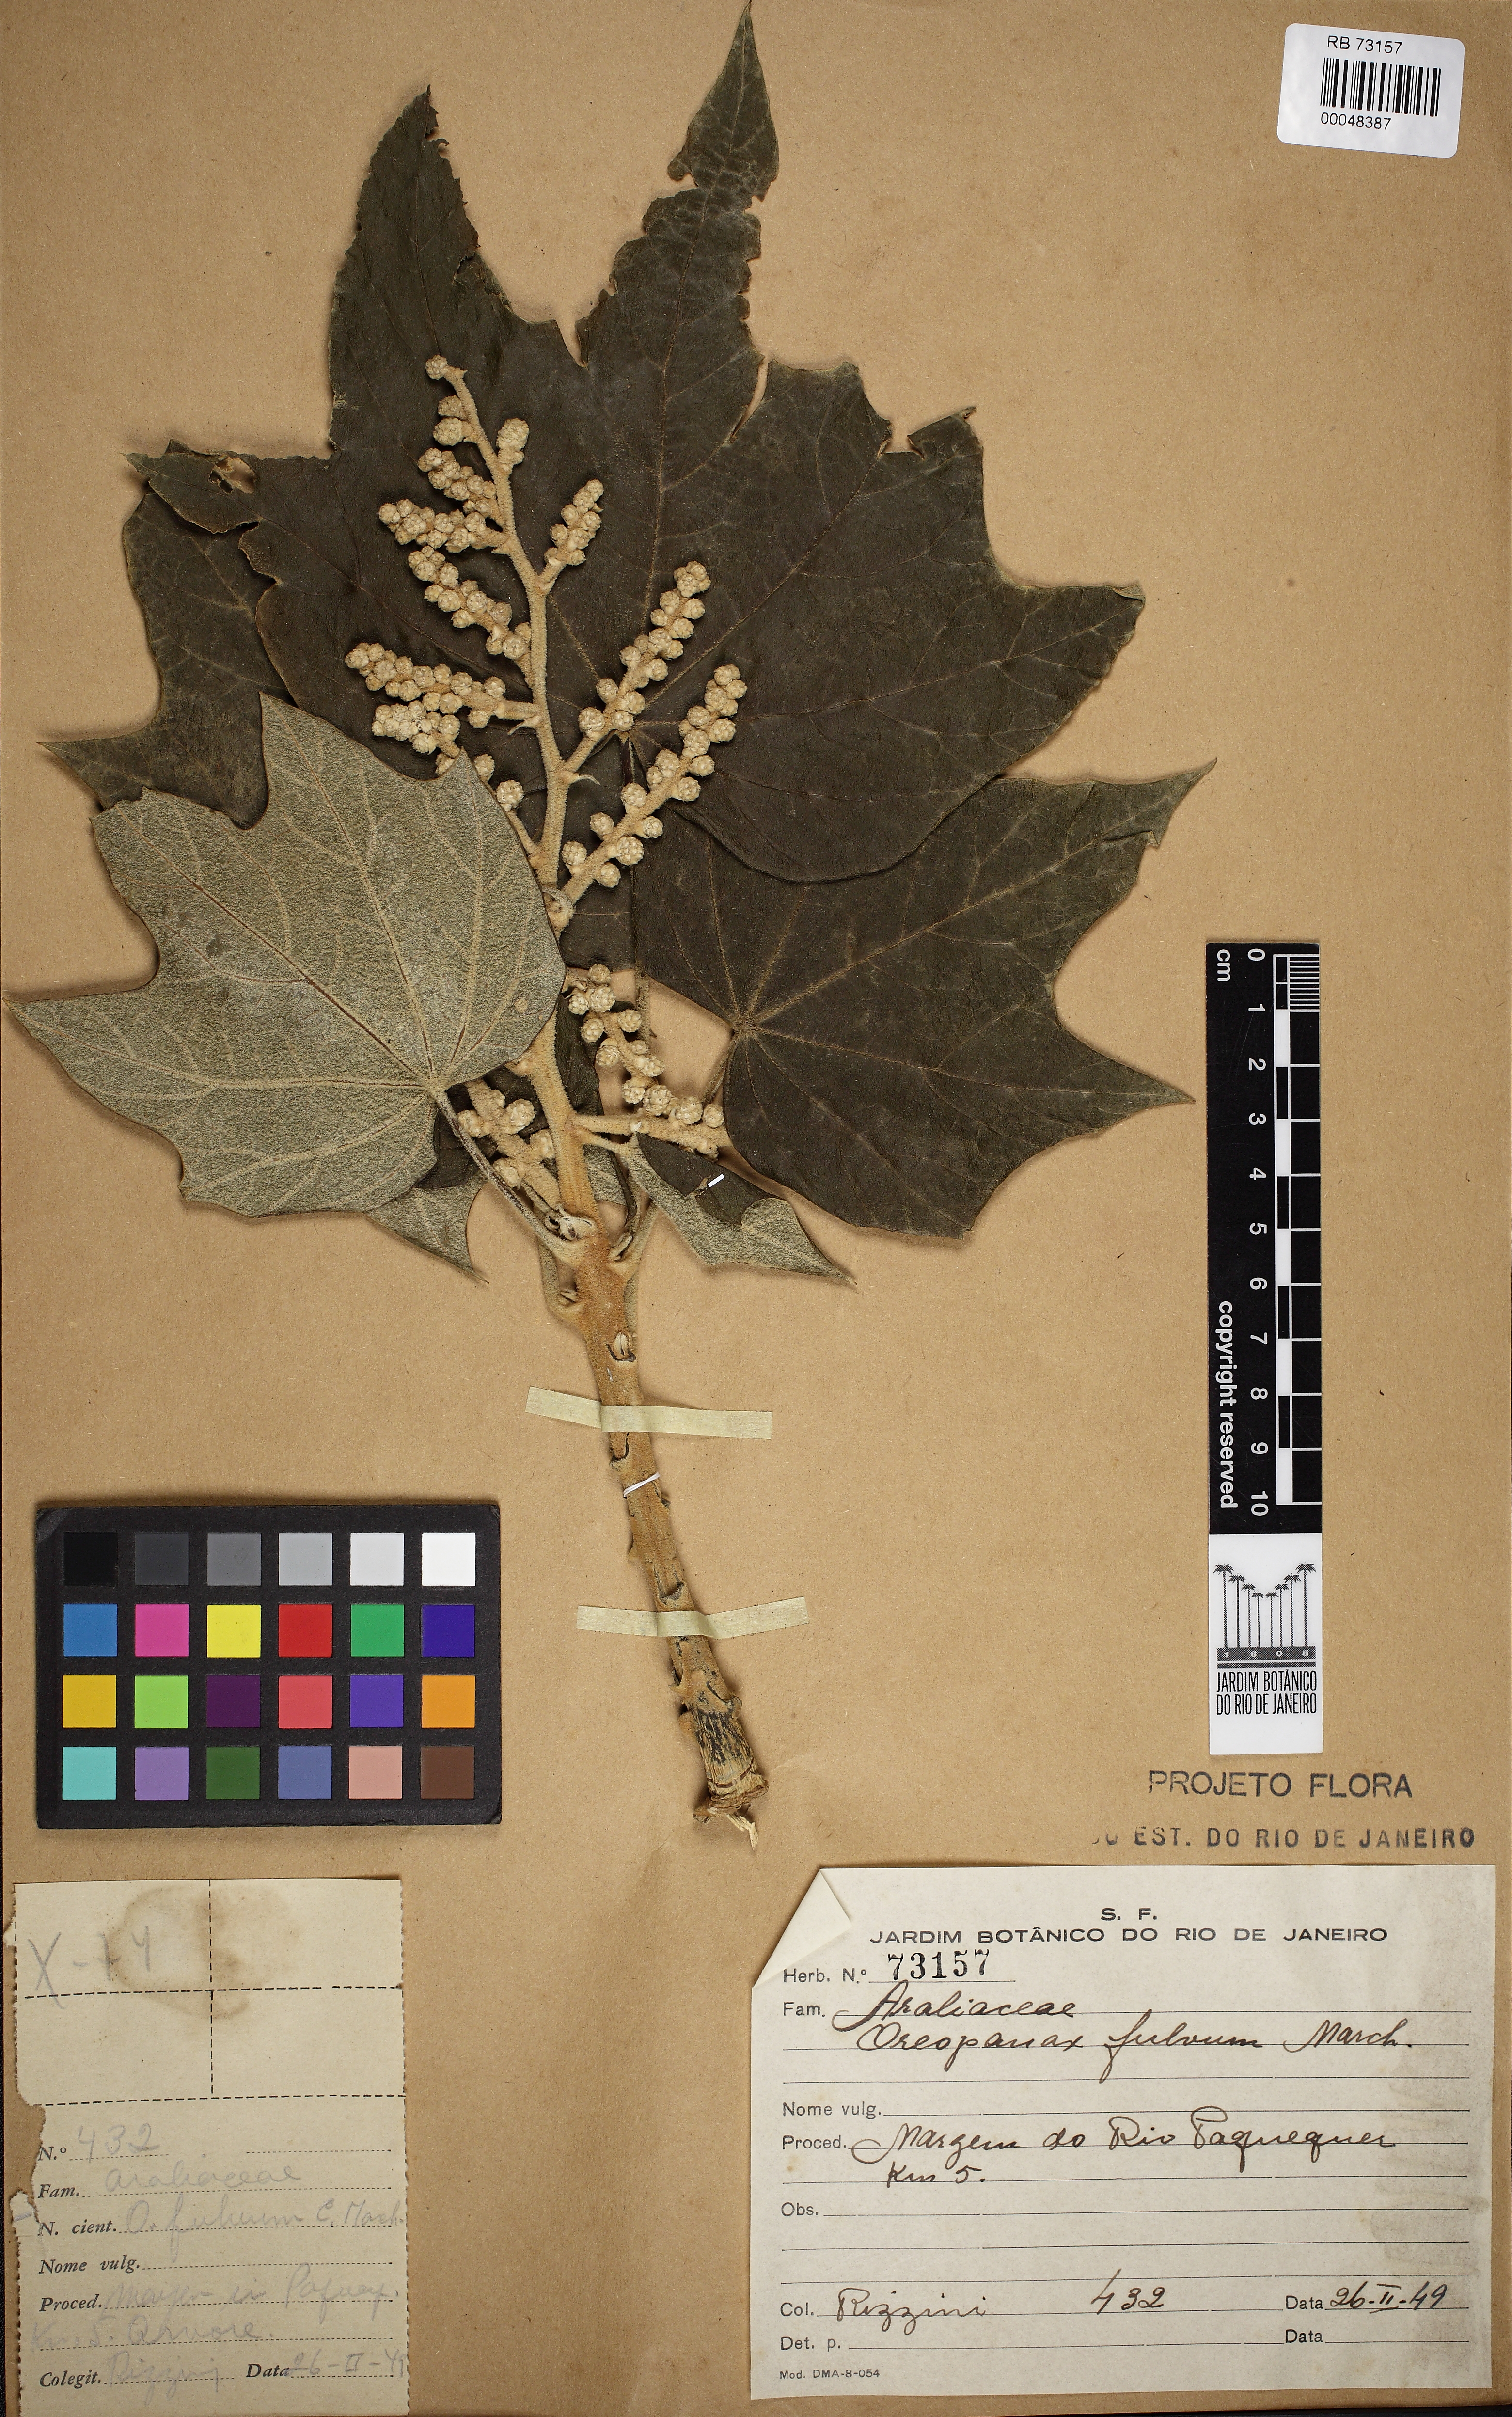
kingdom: Plantae
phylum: Tracheophyta
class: Magnoliopsida
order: Apiales
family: Araliaceae
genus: Oreopanax
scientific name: Oreopanax fulvus
